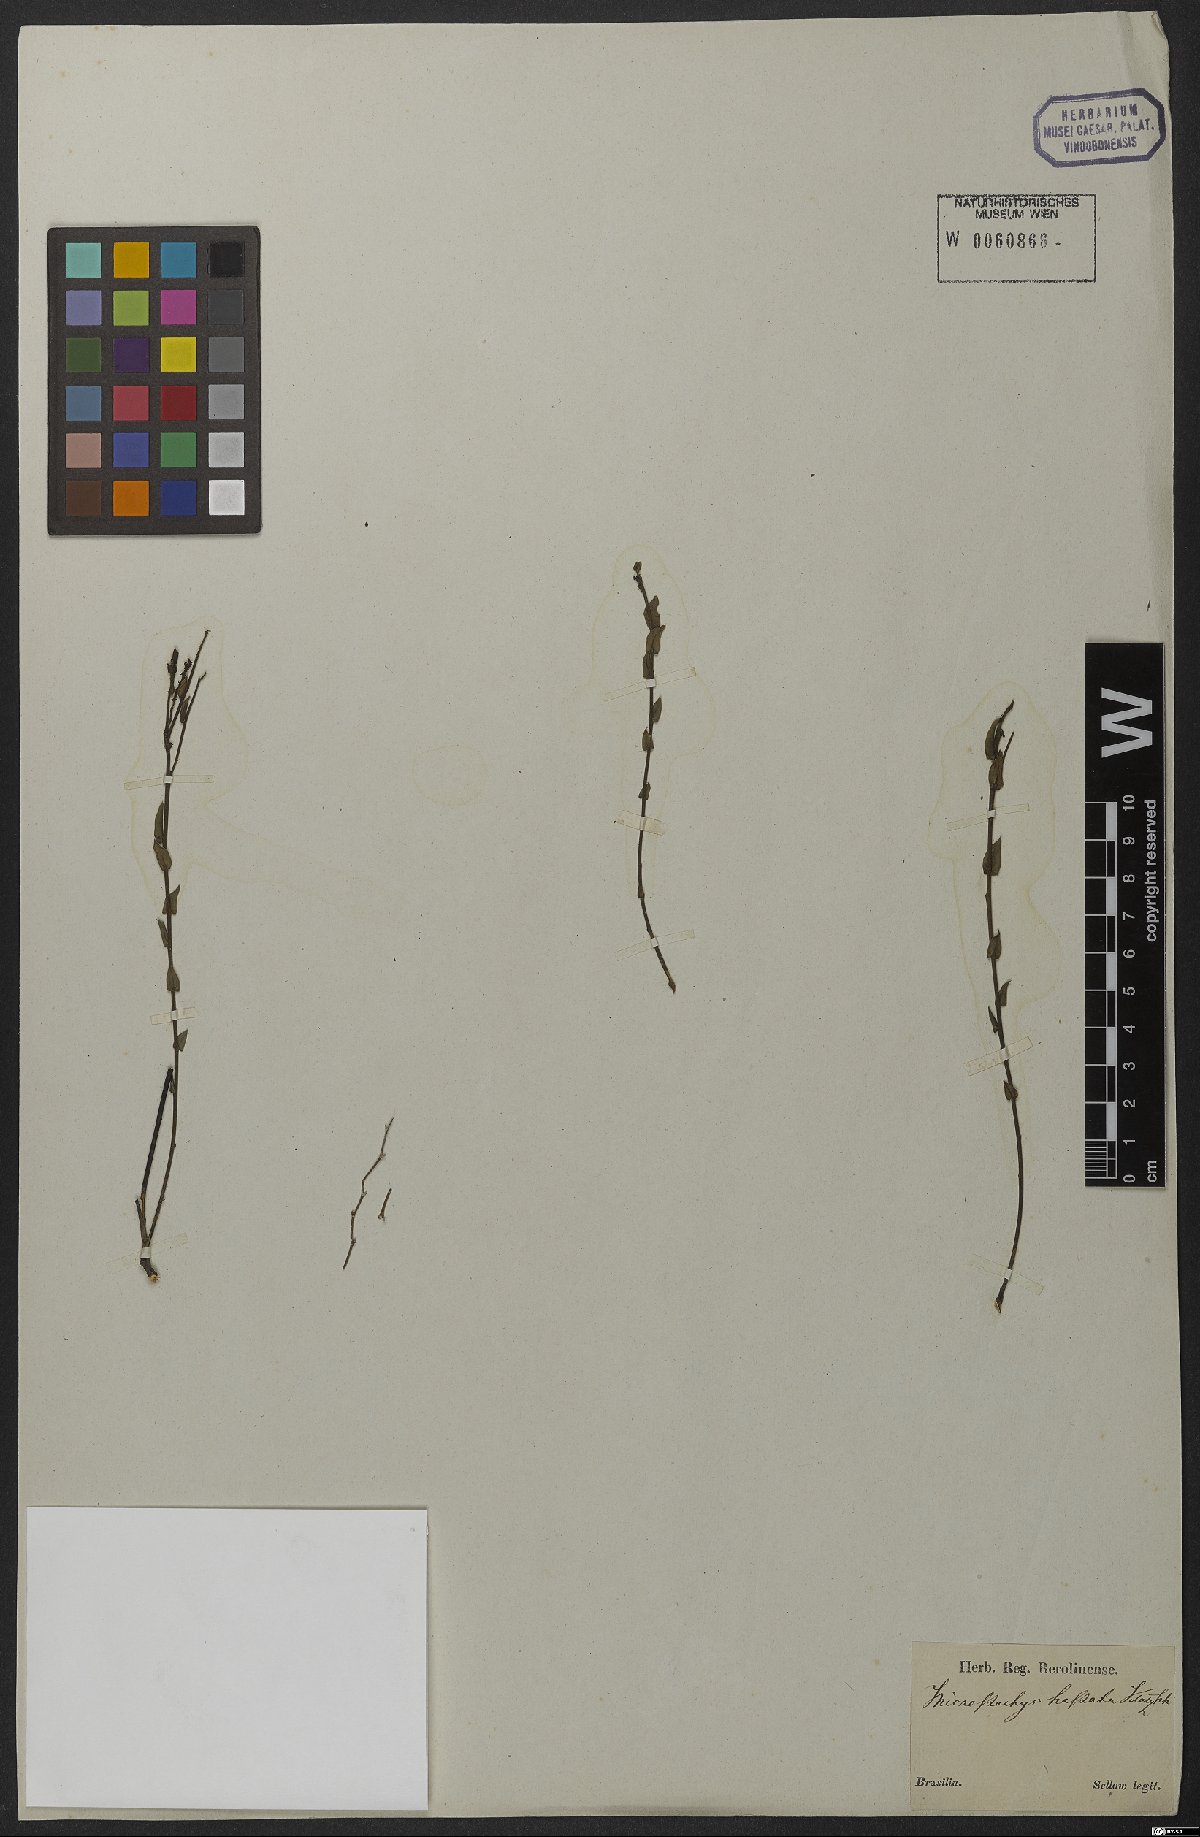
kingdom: Plantae
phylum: Tracheophyta
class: Magnoliopsida
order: Malpighiales
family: Euphorbiaceae
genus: Microstachys
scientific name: Microstachys ditassoides
